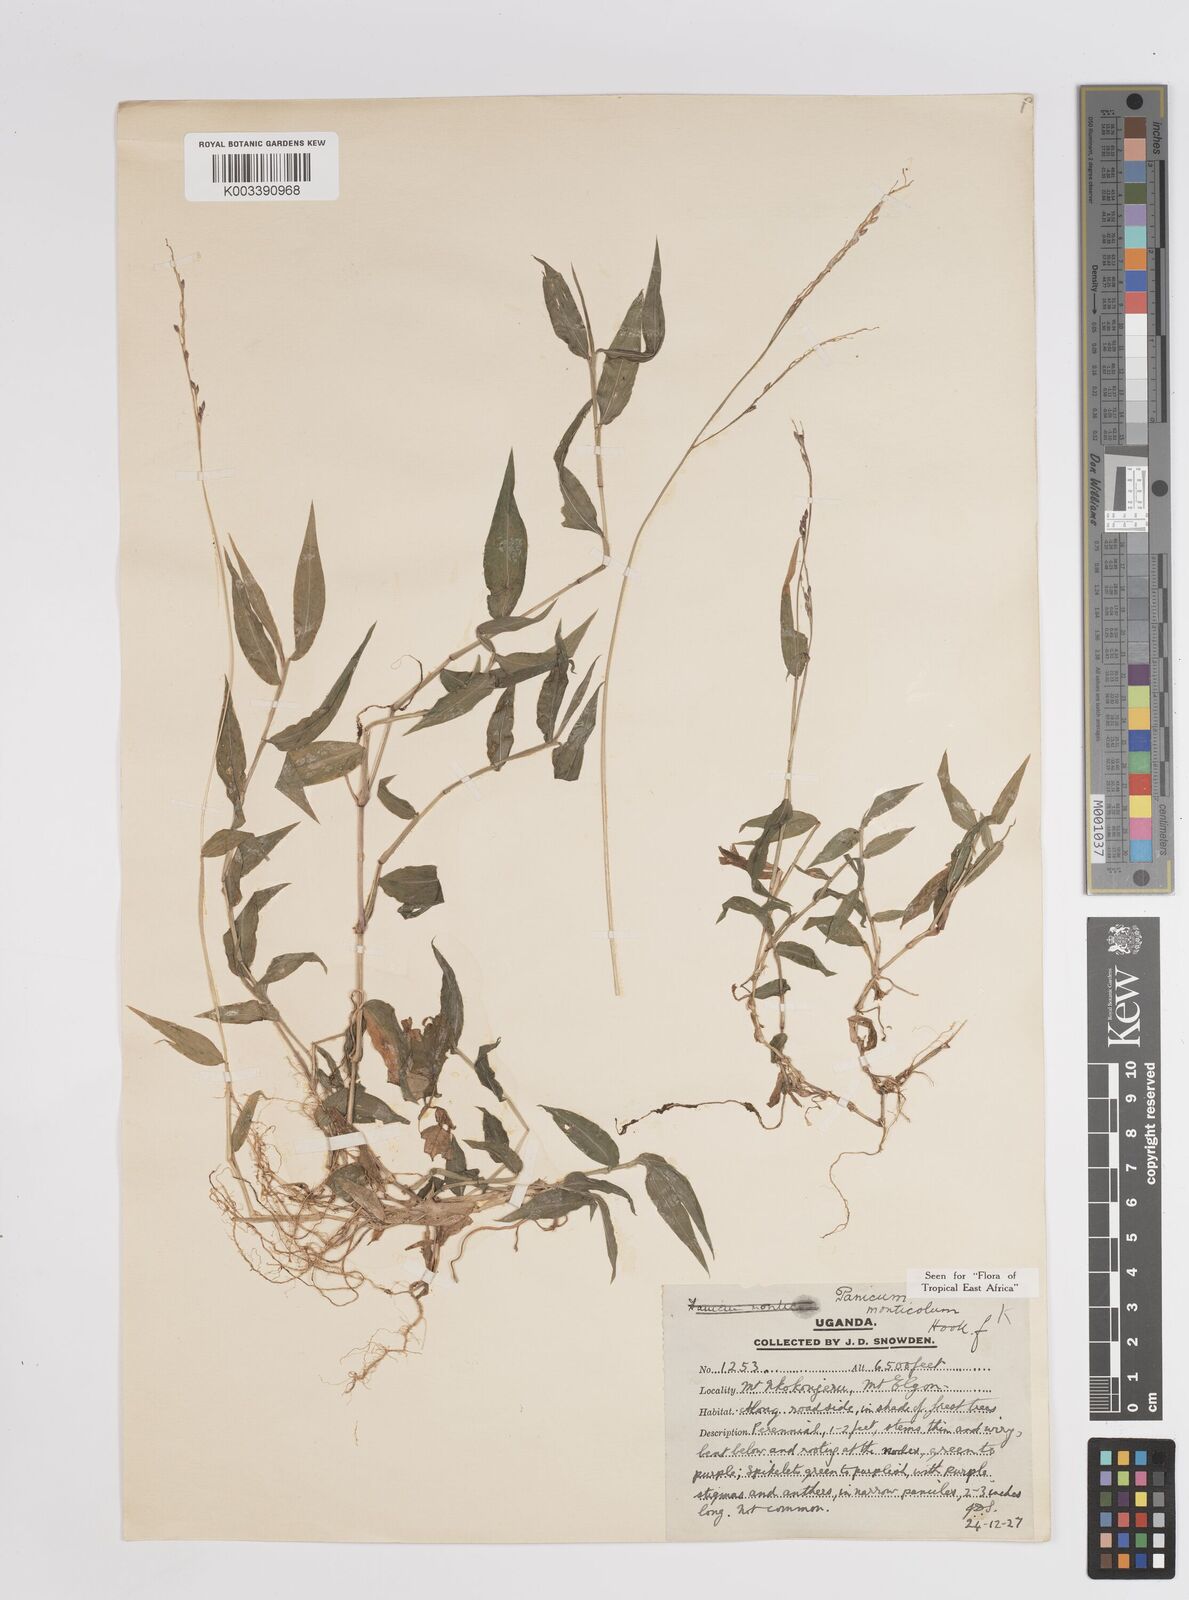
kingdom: Plantae
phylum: Tracheophyta
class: Liliopsida
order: Poales
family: Poaceae
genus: Panicum
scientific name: Panicum
